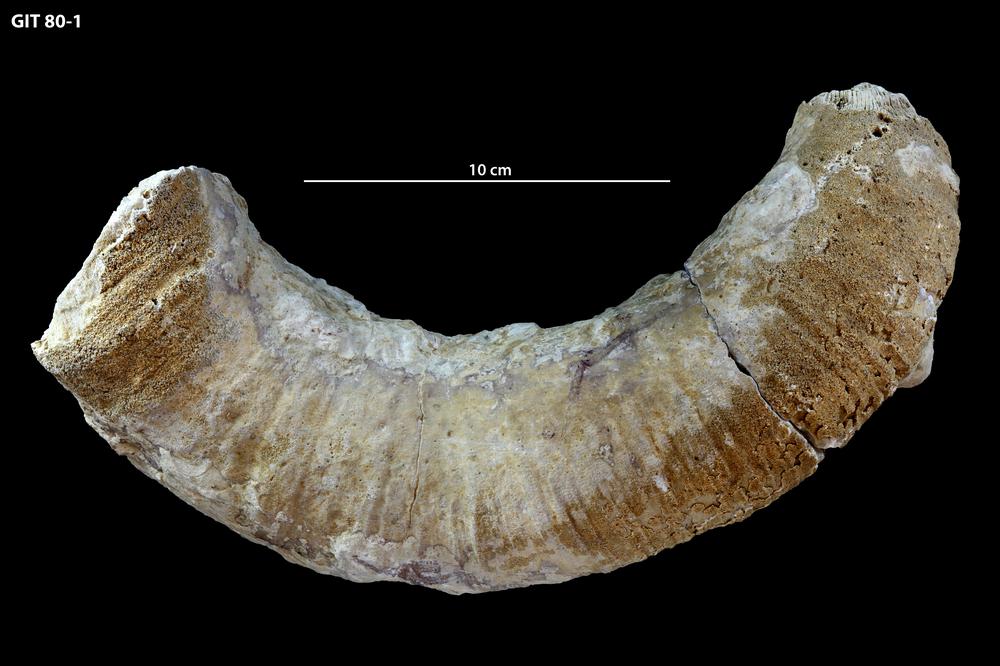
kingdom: Animalia
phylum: Cnidaria
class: Anthozoa
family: Streptelasmatidae
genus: Kaljolasma
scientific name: Kaljolasma
